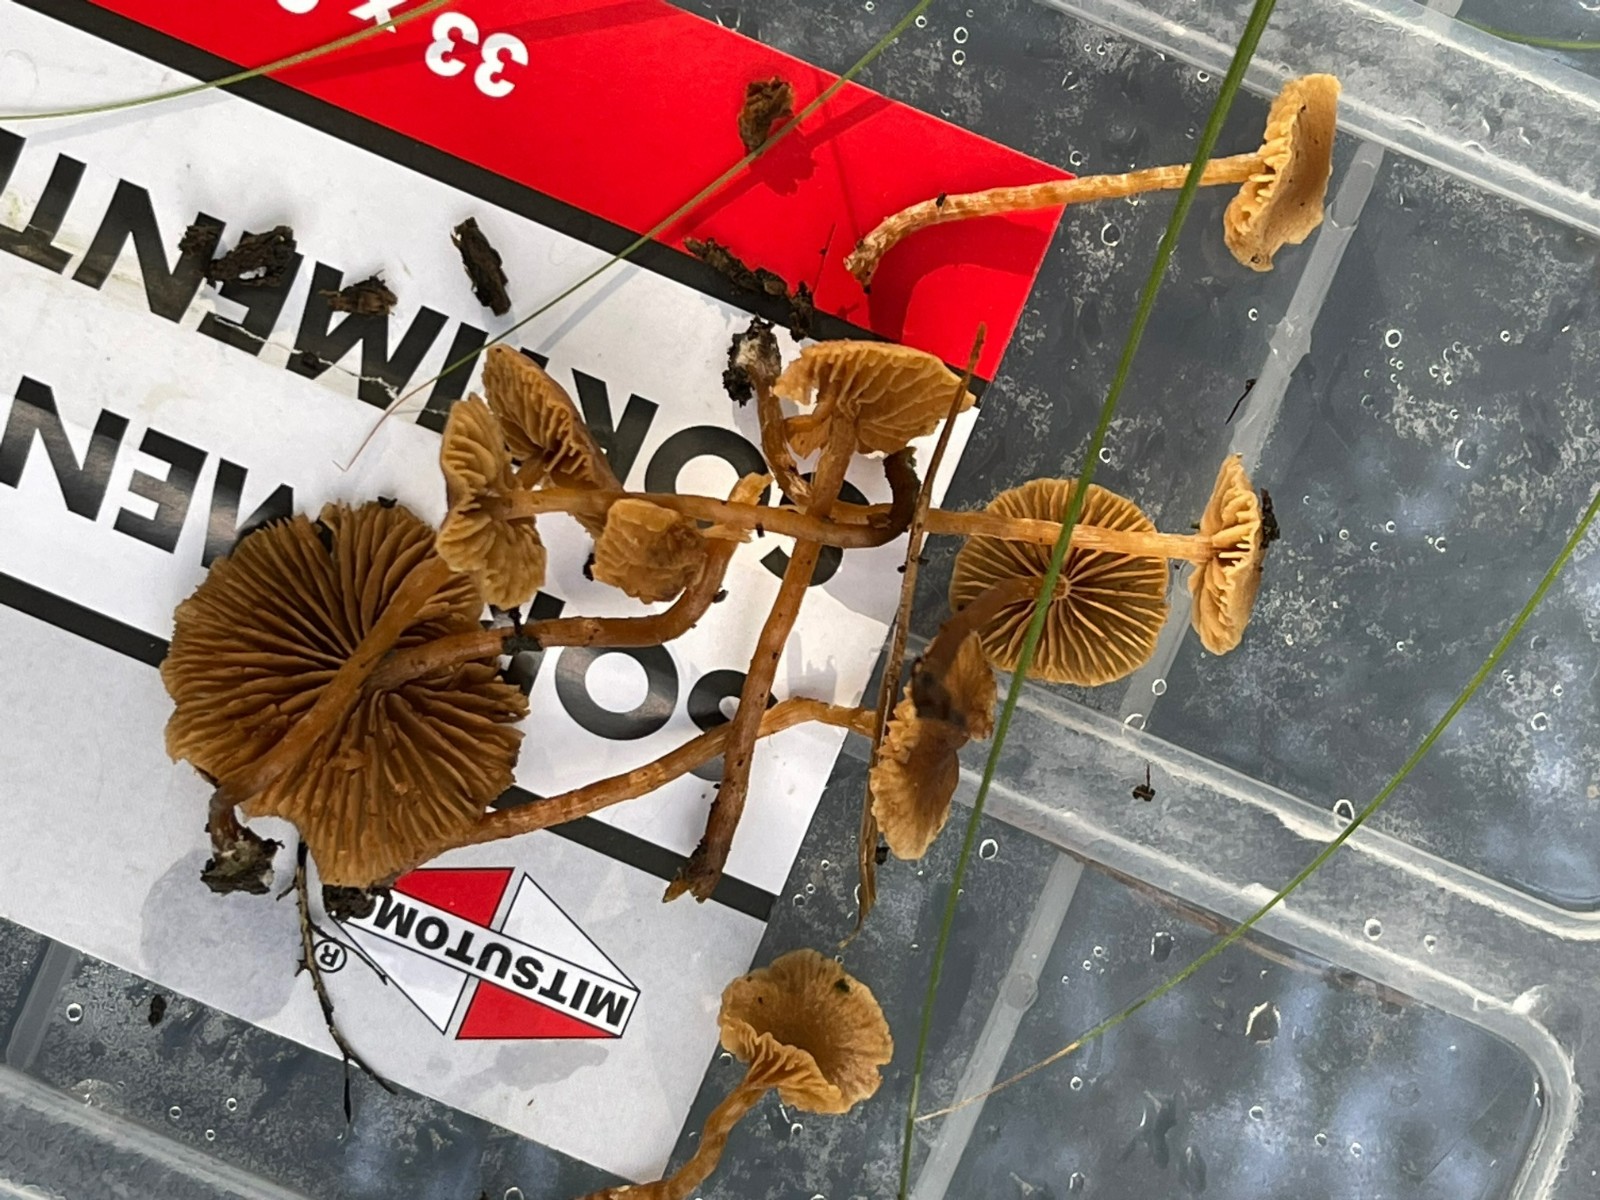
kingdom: Fungi
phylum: Basidiomycota
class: Agaricomycetes
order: Agaricales
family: Hymenogastraceae
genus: Naucoria
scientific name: Naucoria scolecina
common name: mørk elle-knaphat
